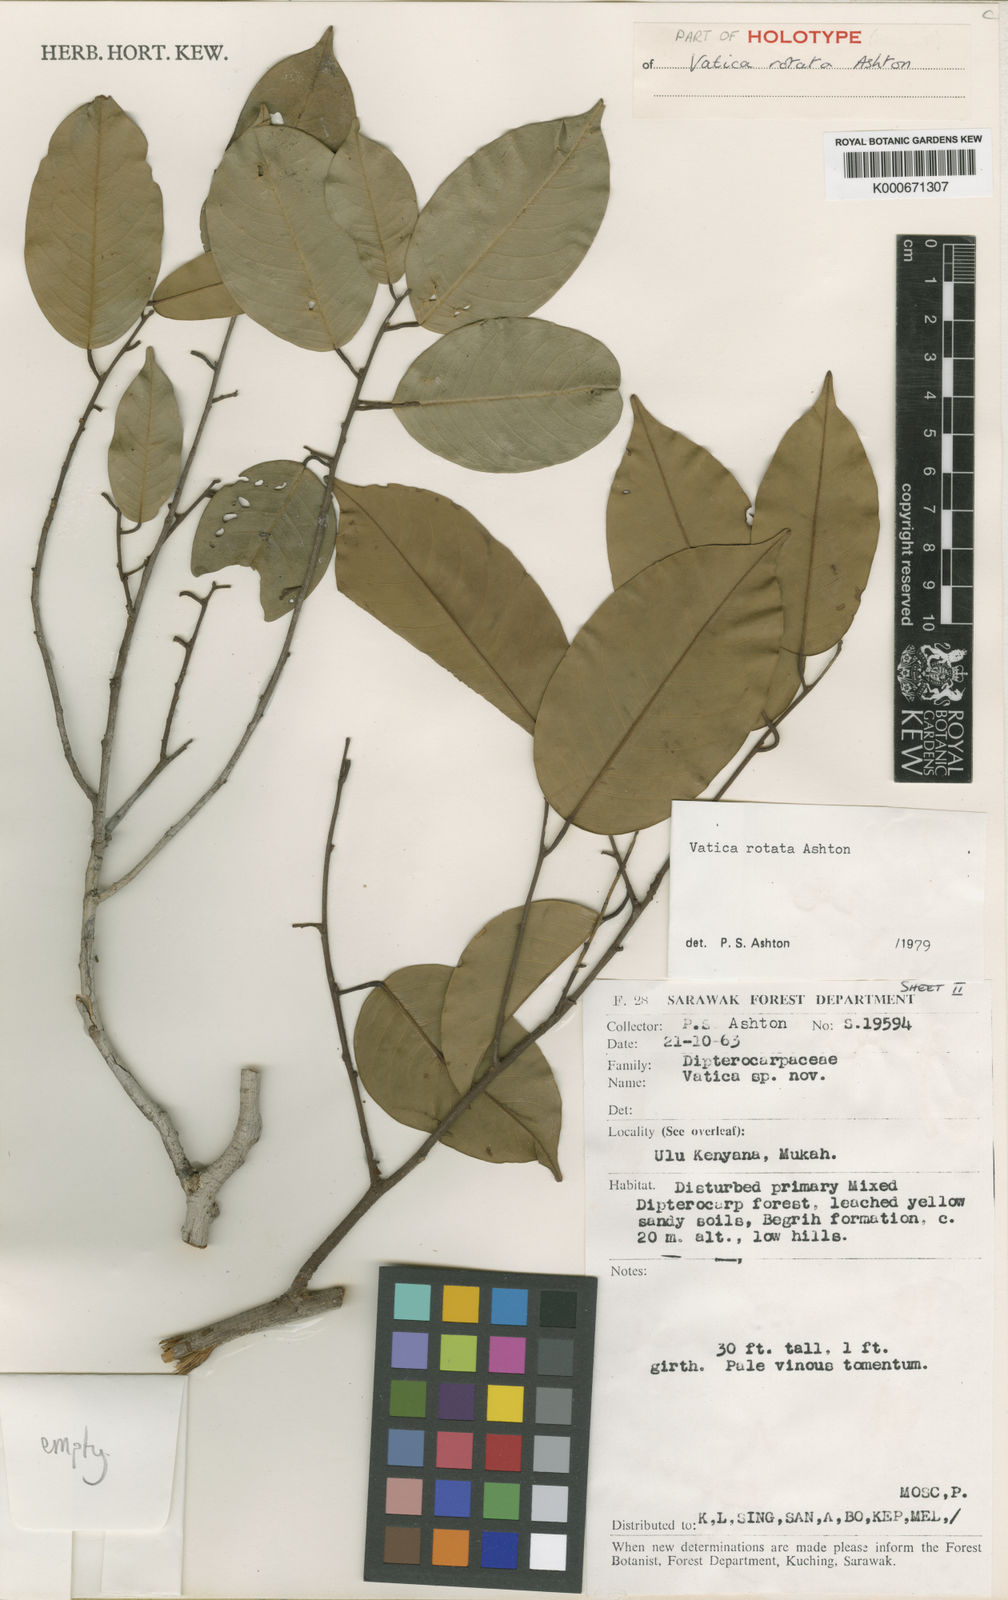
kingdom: Plantae
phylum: Tracheophyta
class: Magnoliopsida
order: Malvales
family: Dipterocarpaceae
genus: Vatica
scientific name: Vatica rotata
